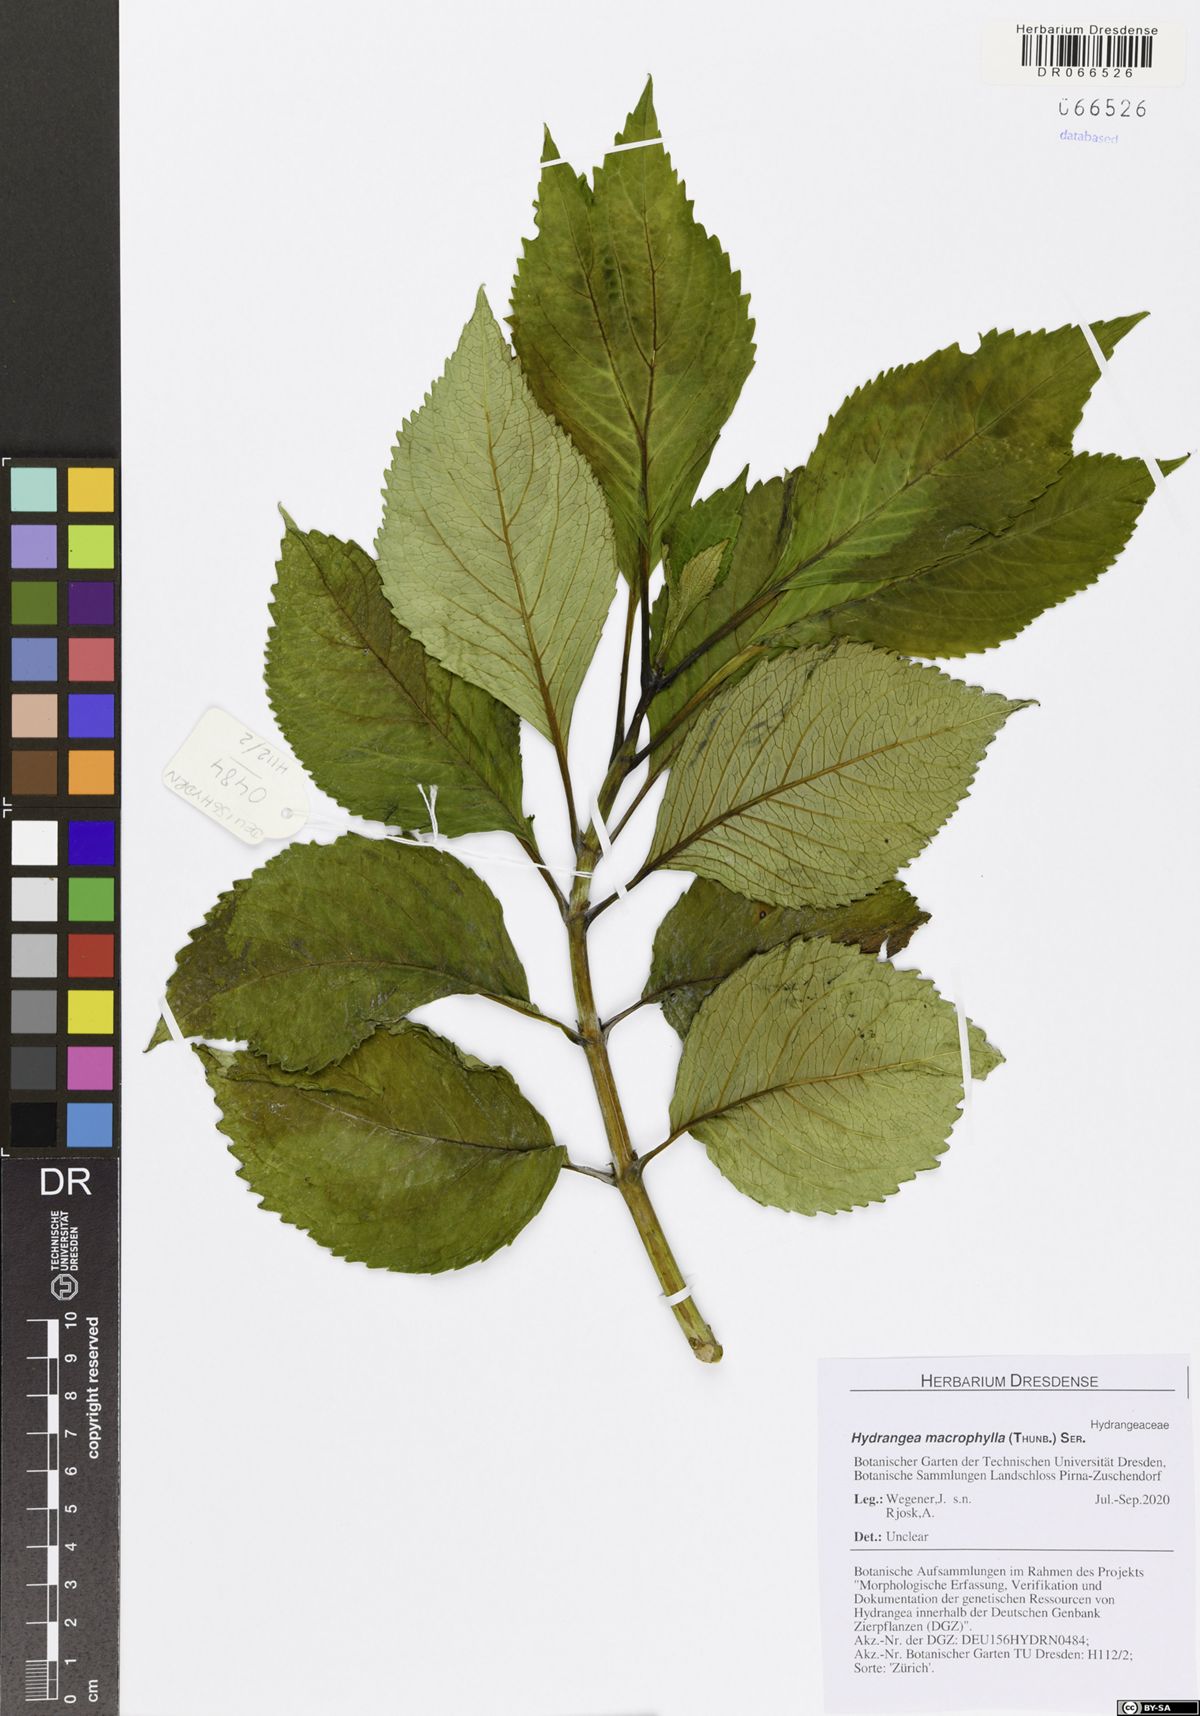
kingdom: Plantae
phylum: Tracheophyta
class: Magnoliopsida
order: Cornales
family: Hydrangeaceae
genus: Hydrangea
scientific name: Hydrangea macrophylla
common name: Hydrangea
